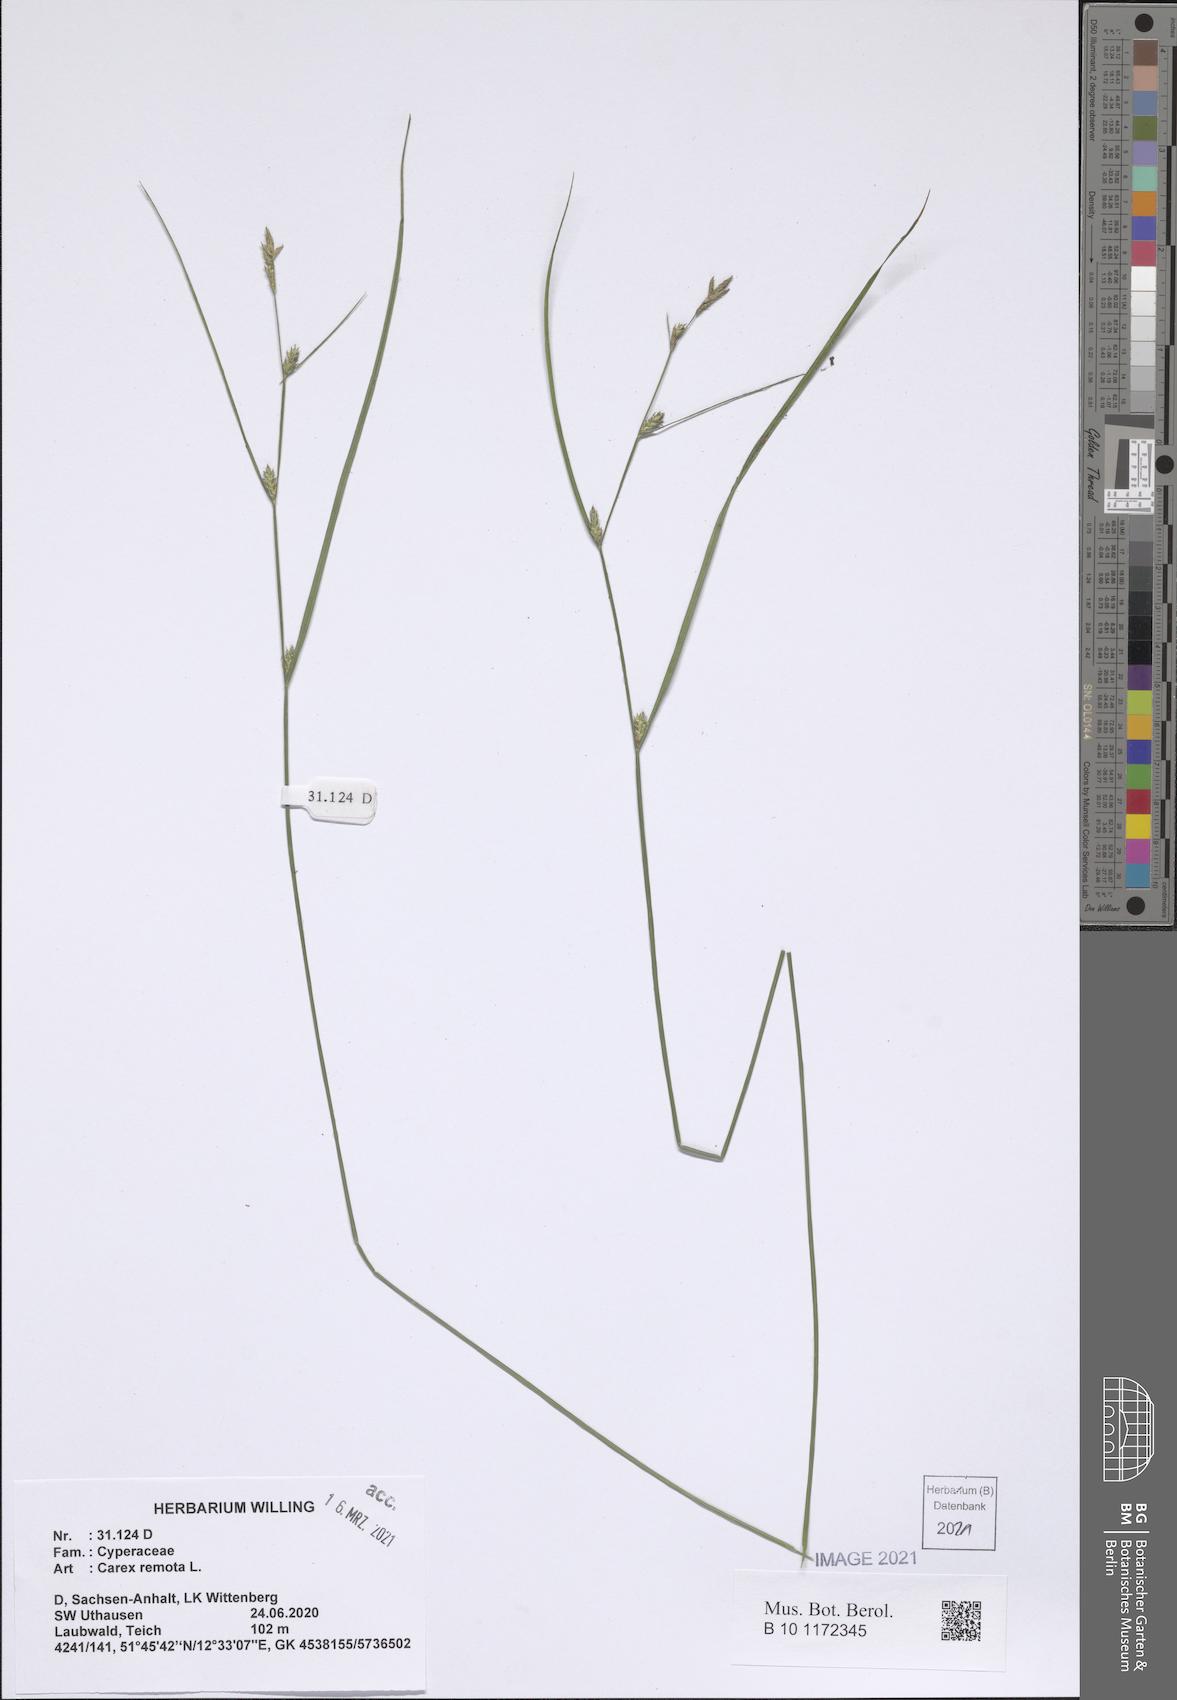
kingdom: Plantae
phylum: Tracheophyta
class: Liliopsida
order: Poales
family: Cyperaceae
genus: Carex
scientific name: Carex remota
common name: Remote sedge
